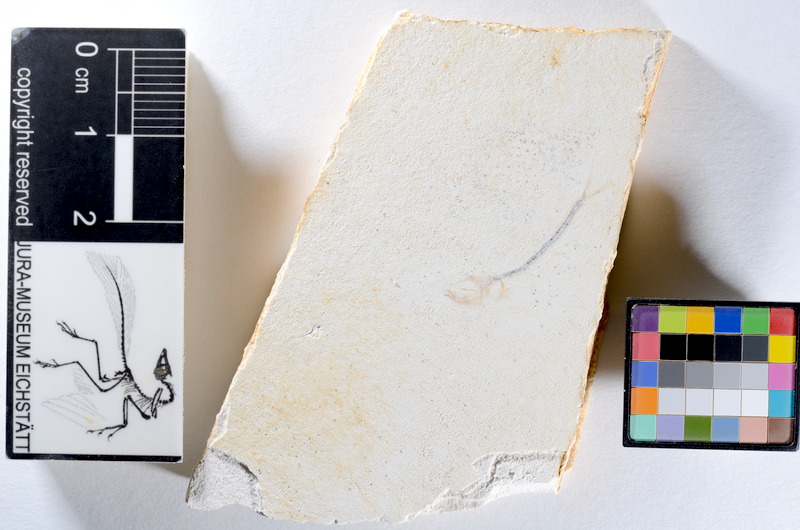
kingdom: Animalia
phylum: Chordata
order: Salmoniformes
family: Orthogonikleithridae
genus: Orthogonikleithrus
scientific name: Orthogonikleithrus hoelli
